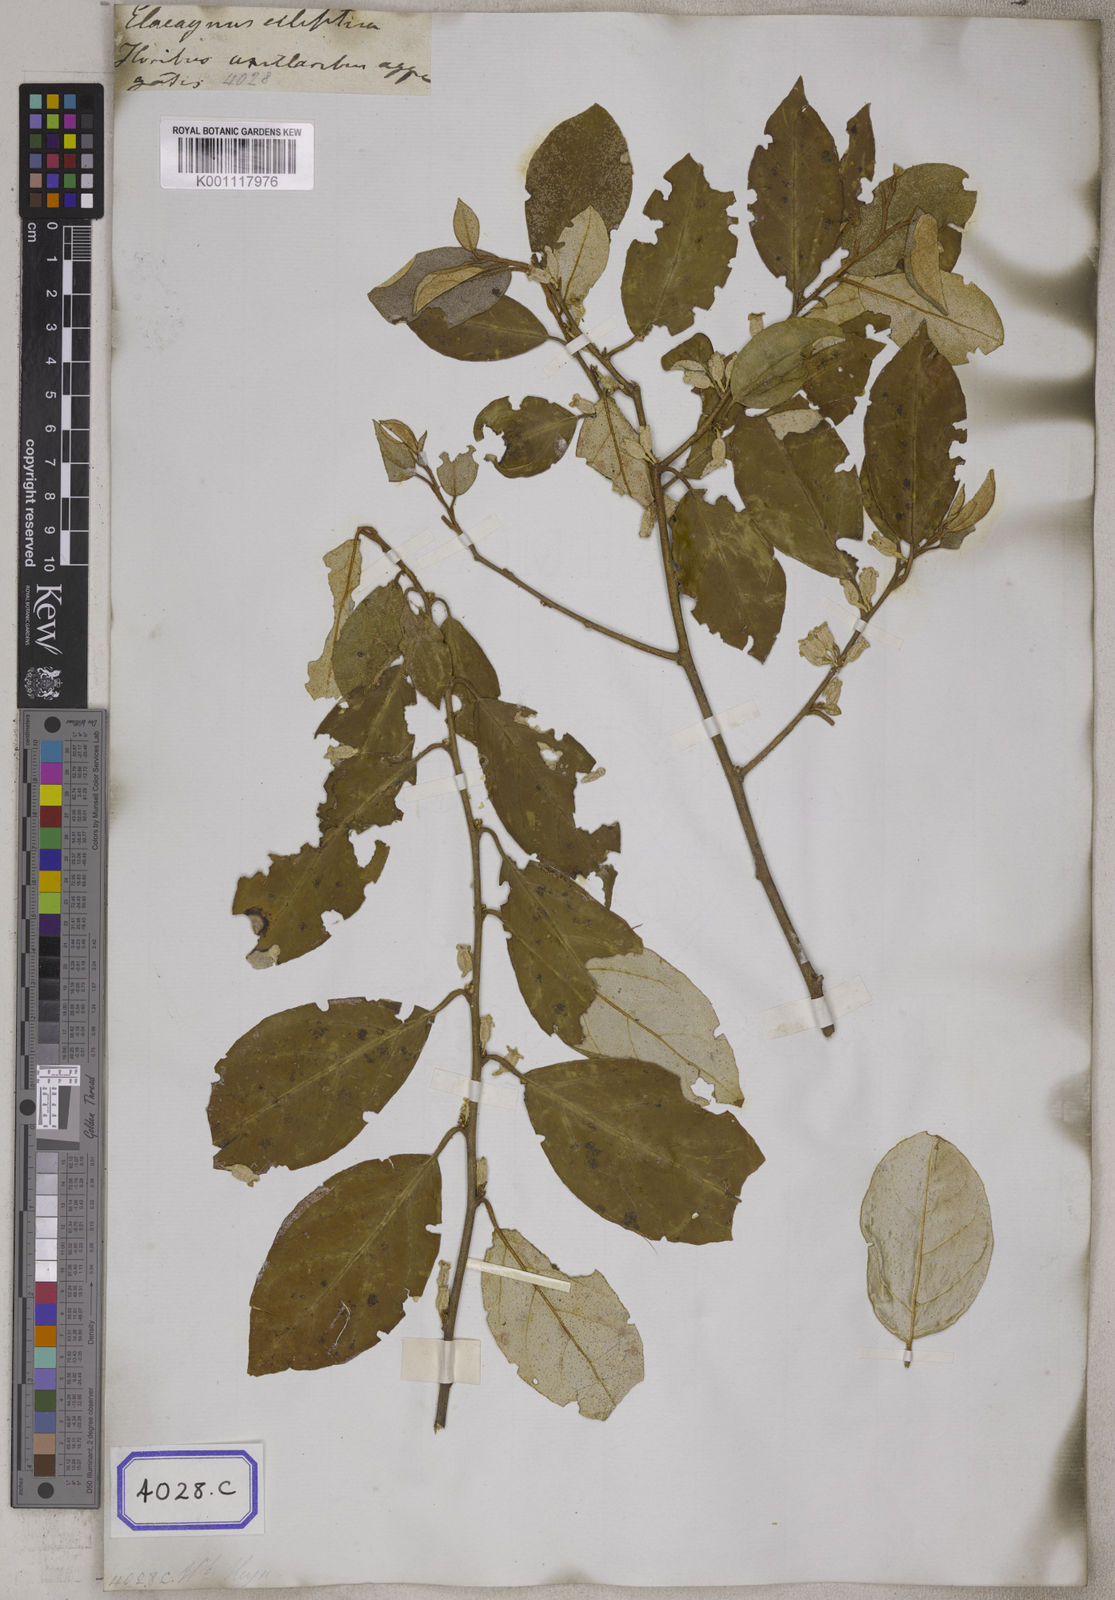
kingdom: Plantae
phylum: Tracheophyta
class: Magnoliopsida
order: Rosales
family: Elaeagnaceae
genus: Elaeagnus
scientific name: Elaeagnus latifolia
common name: Oleaster
